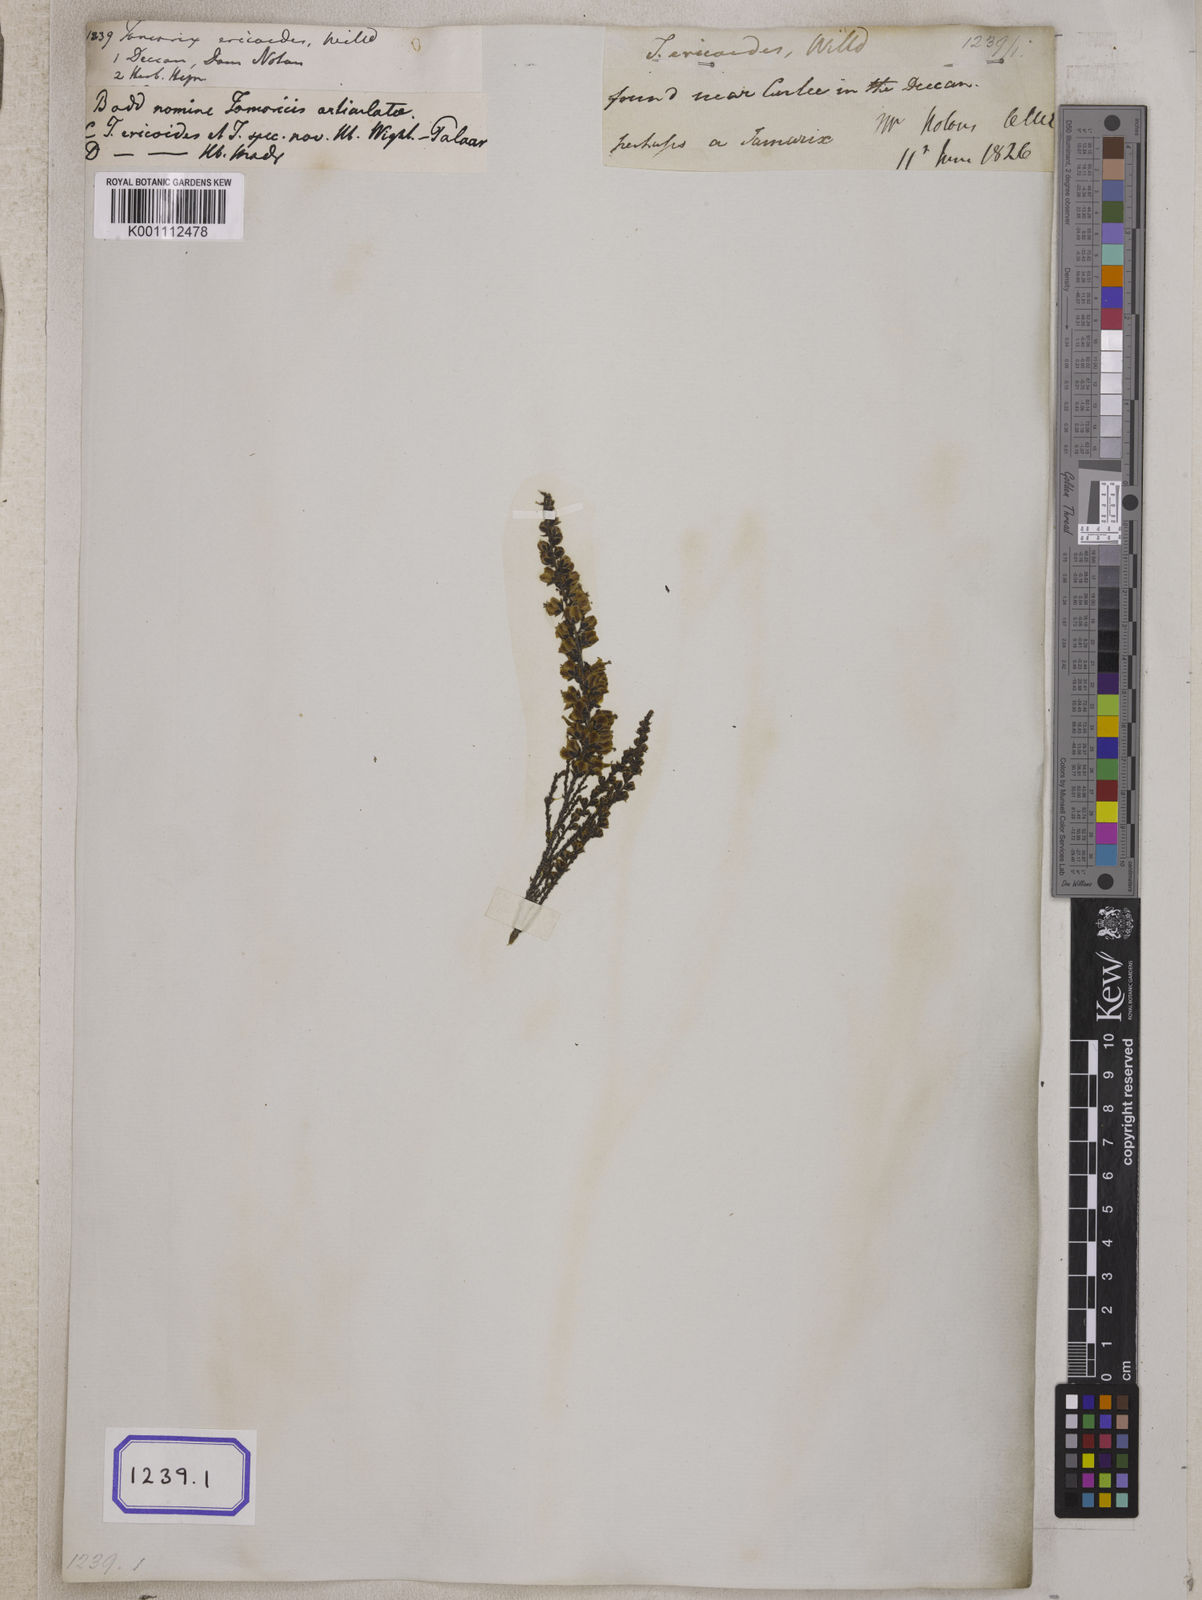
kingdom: Plantae
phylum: Tracheophyta
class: Magnoliopsida
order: Caryophyllales
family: Tamaricaceae
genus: Tamarix
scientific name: Tamarix ericoides
